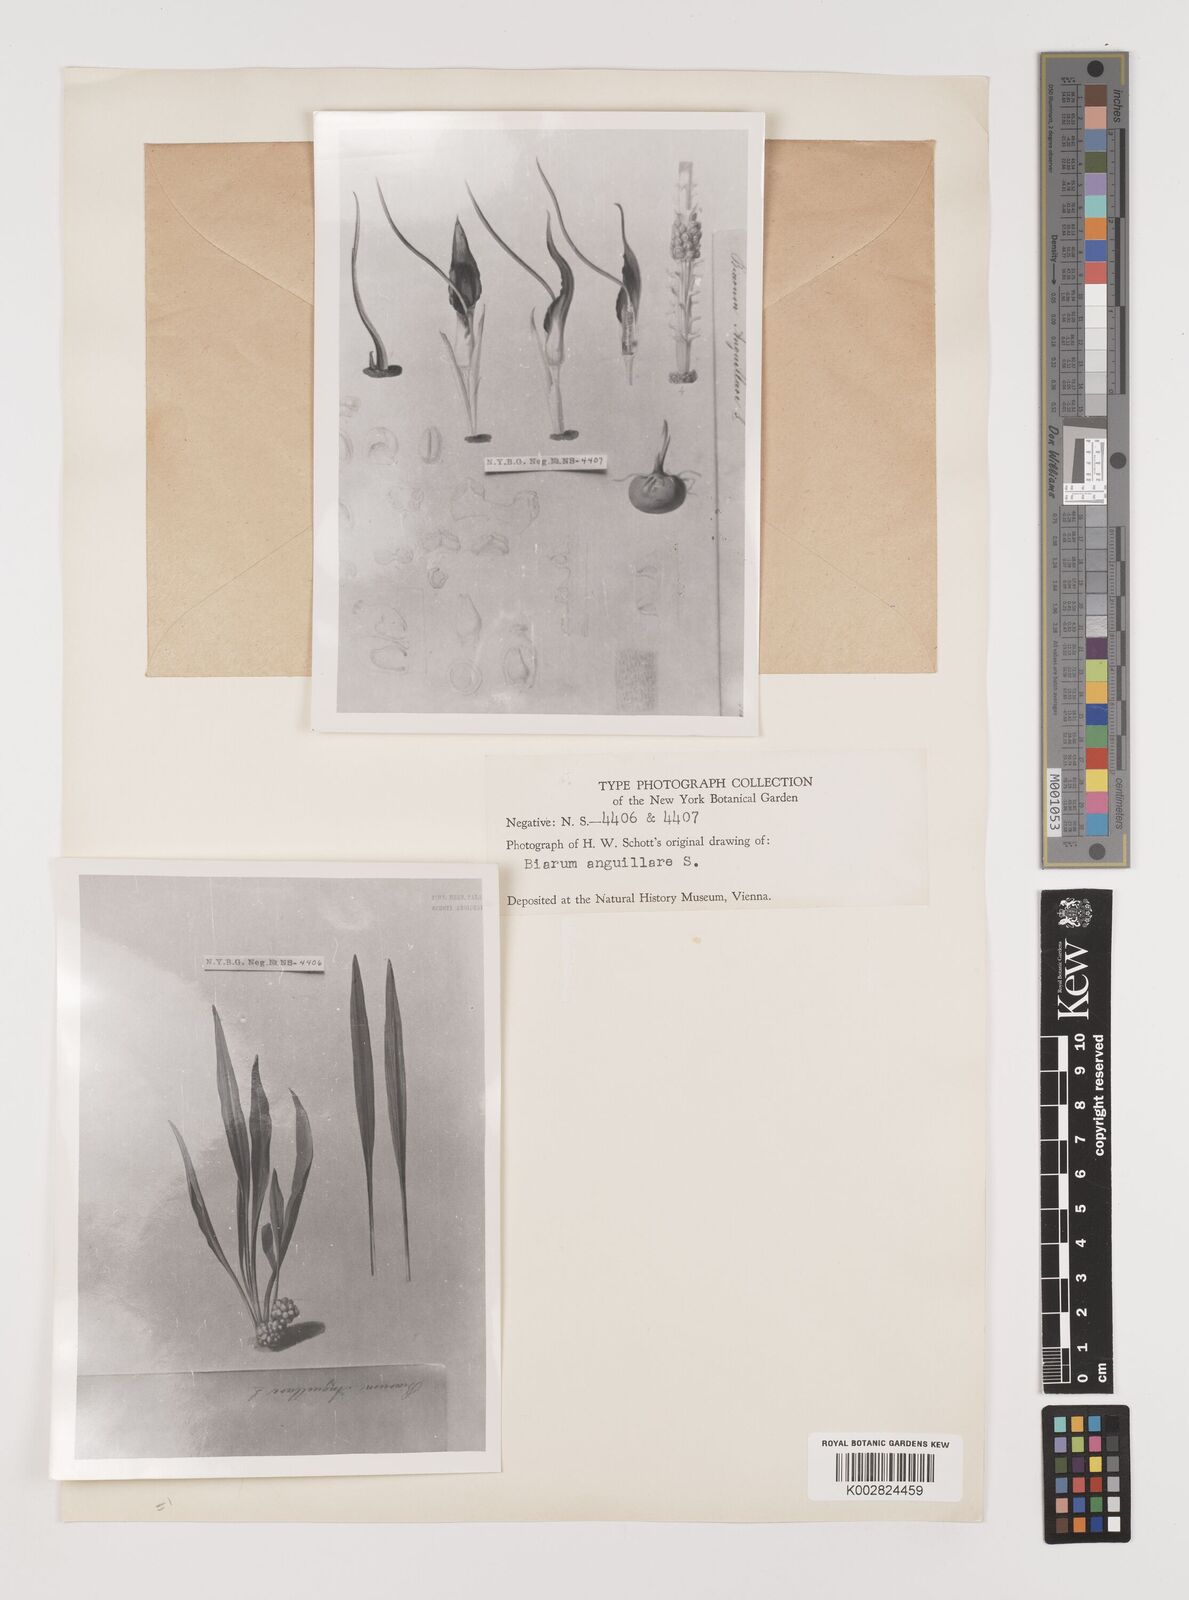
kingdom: Plantae
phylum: Tracheophyta
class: Liliopsida
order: Alismatales
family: Araceae
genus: Biarum
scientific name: Biarum tenuifolium
